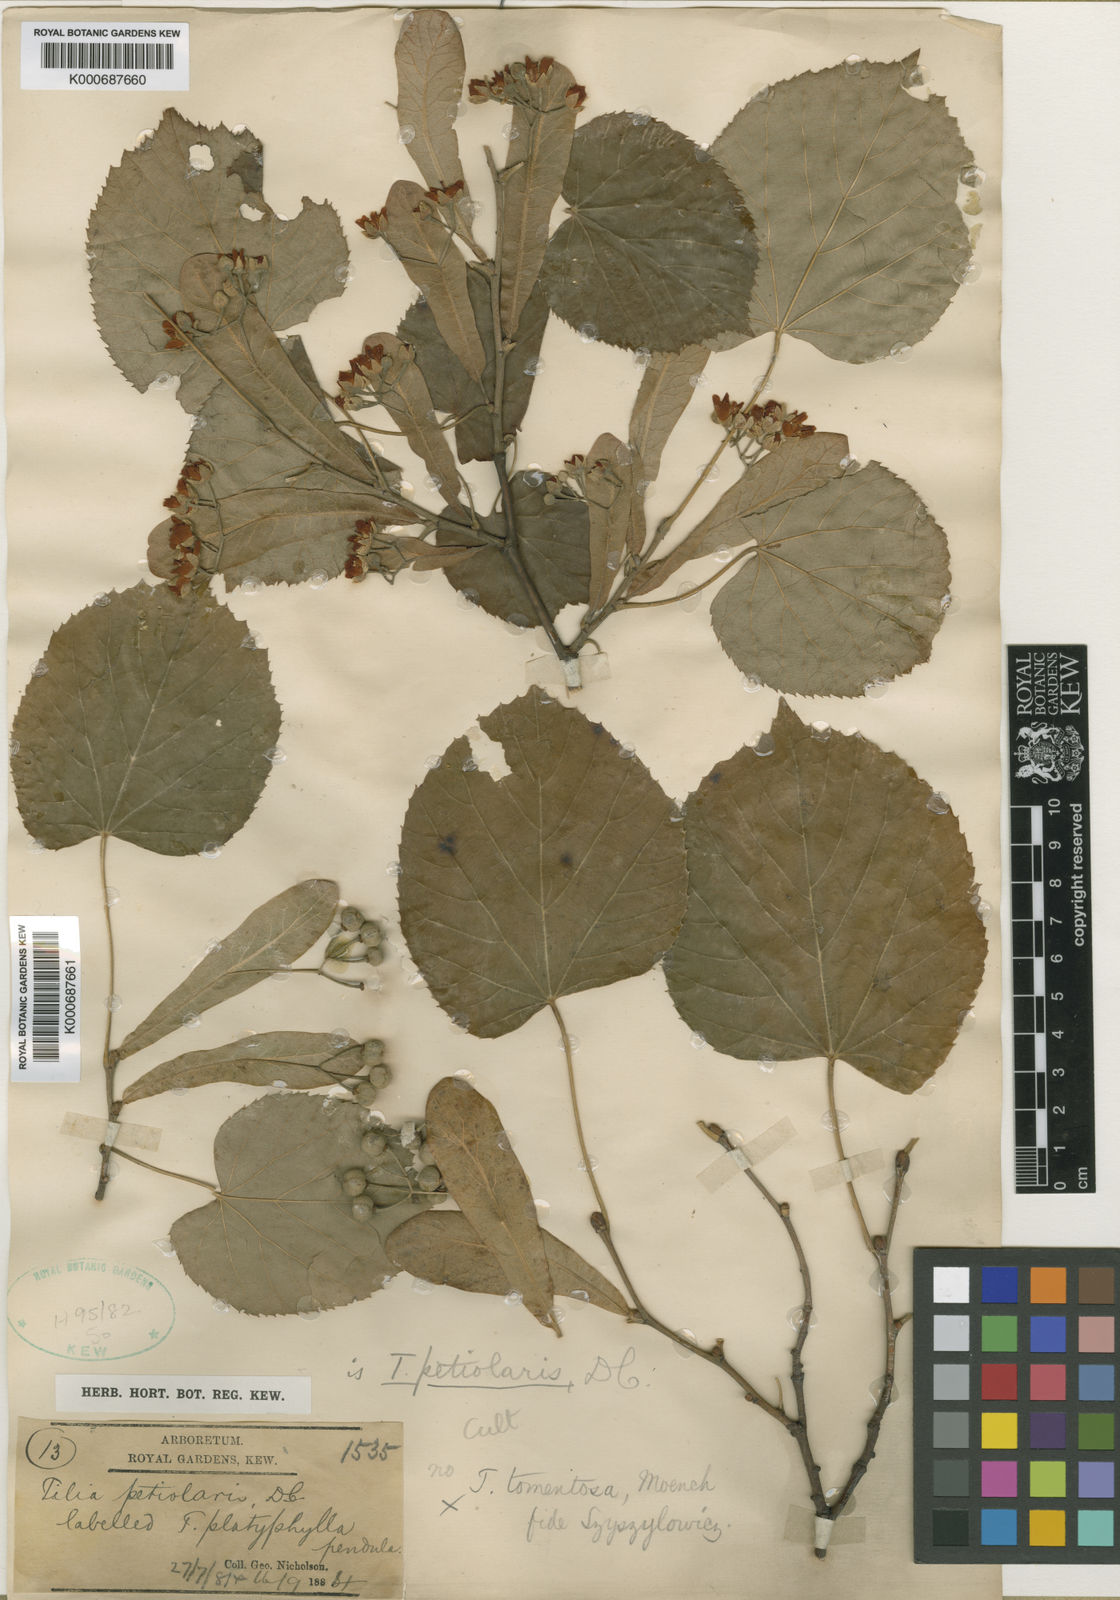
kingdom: Plantae
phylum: Tracheophyta
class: Magnoliopsida
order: Malvales
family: Malvaceae
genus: Tilia
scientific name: Tilia tomentosa
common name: Silver lime
